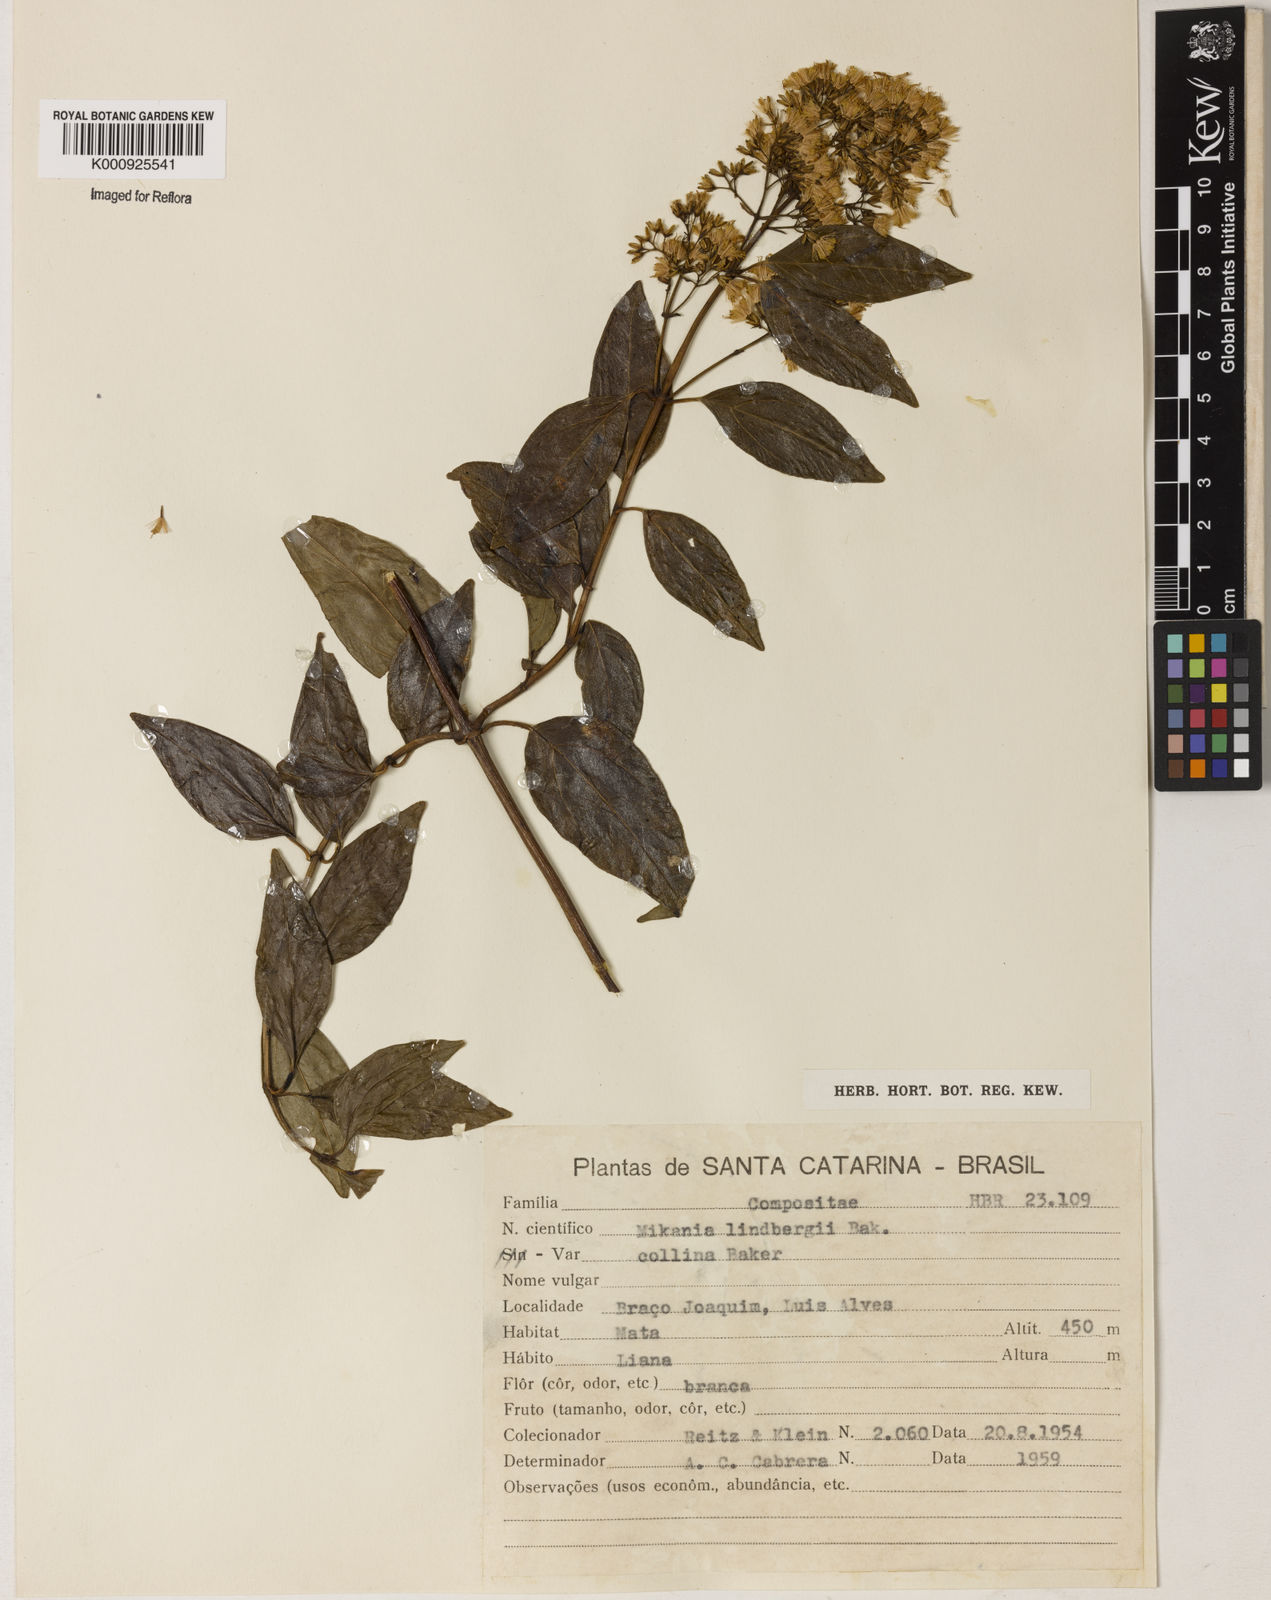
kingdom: Plantae
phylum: Tracheophyta
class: Magnoliopsida
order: Asterales
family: Asteraceae
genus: Mikania
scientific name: Mikania lindbergii
